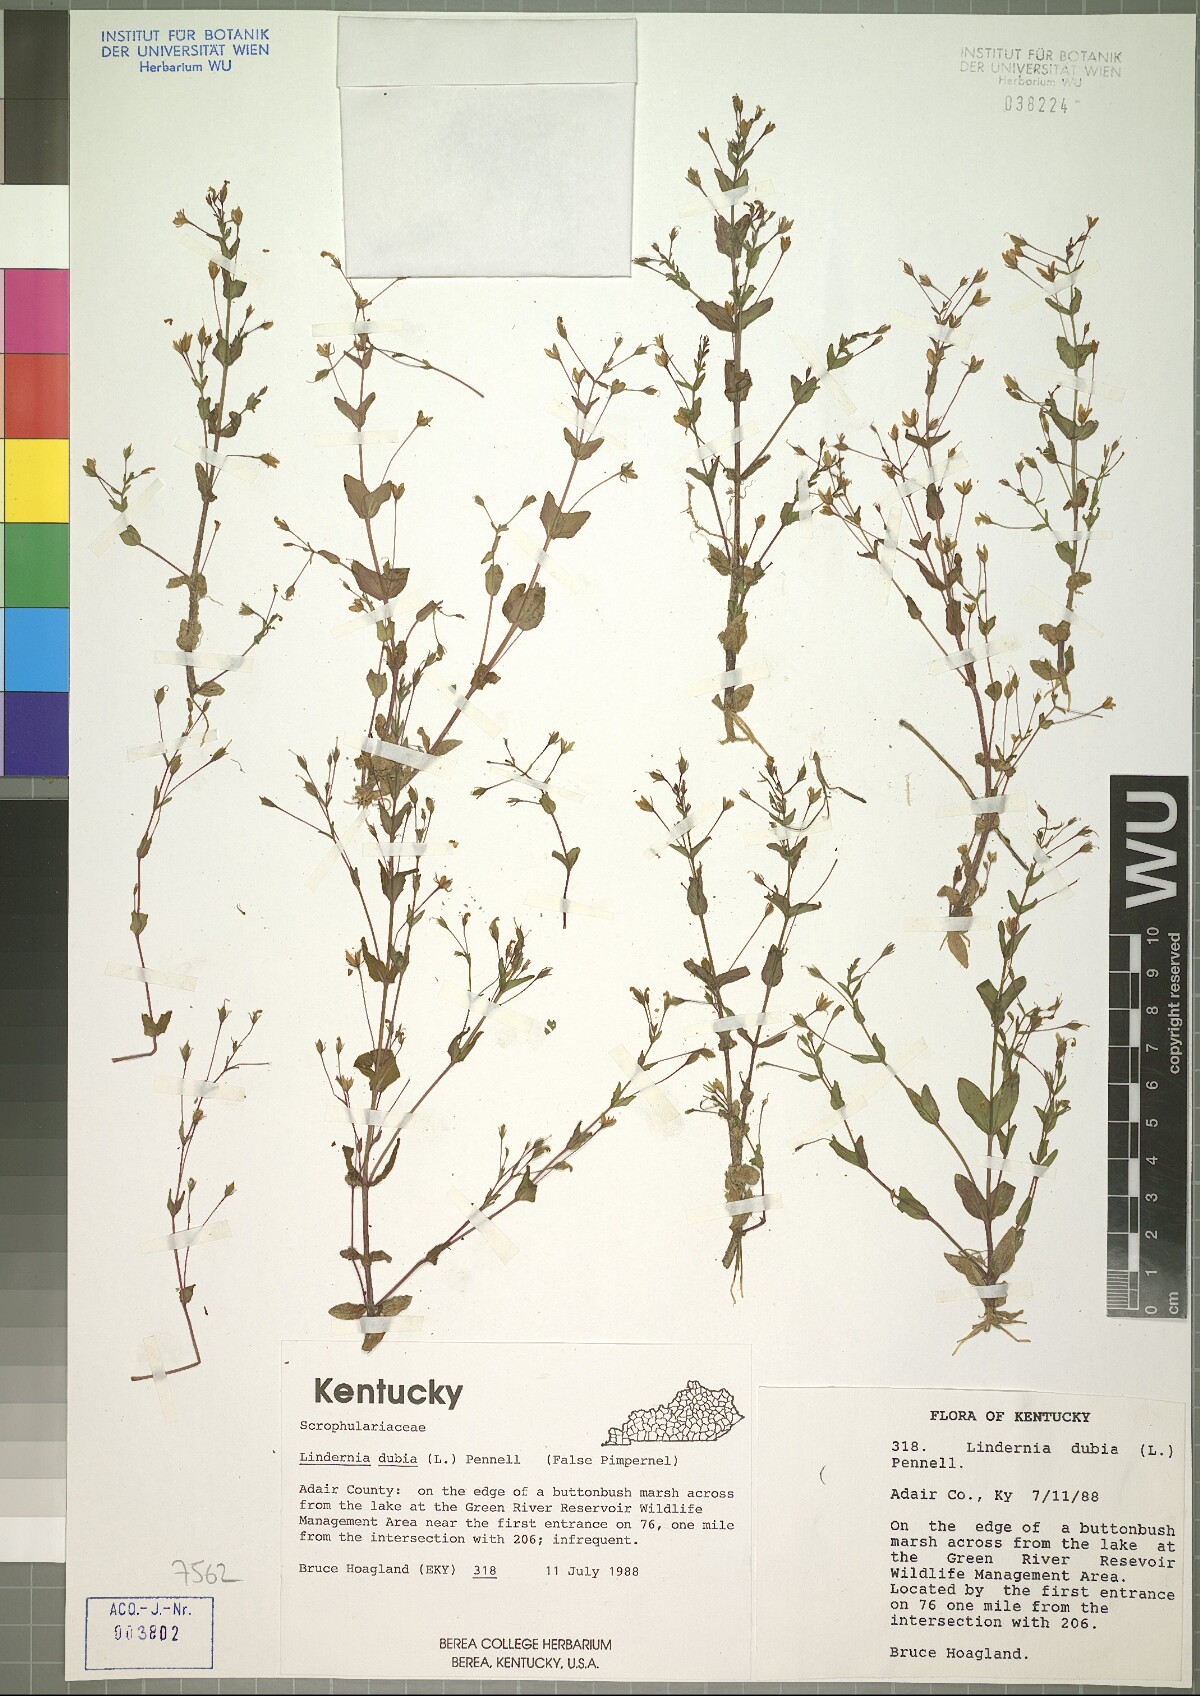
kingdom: Plantae
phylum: Tracheophyta
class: Magnoliopsida
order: Lamiales
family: Linderniaceae
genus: Lindernia
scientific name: Lindernia dubia
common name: Annual false pimpernel
